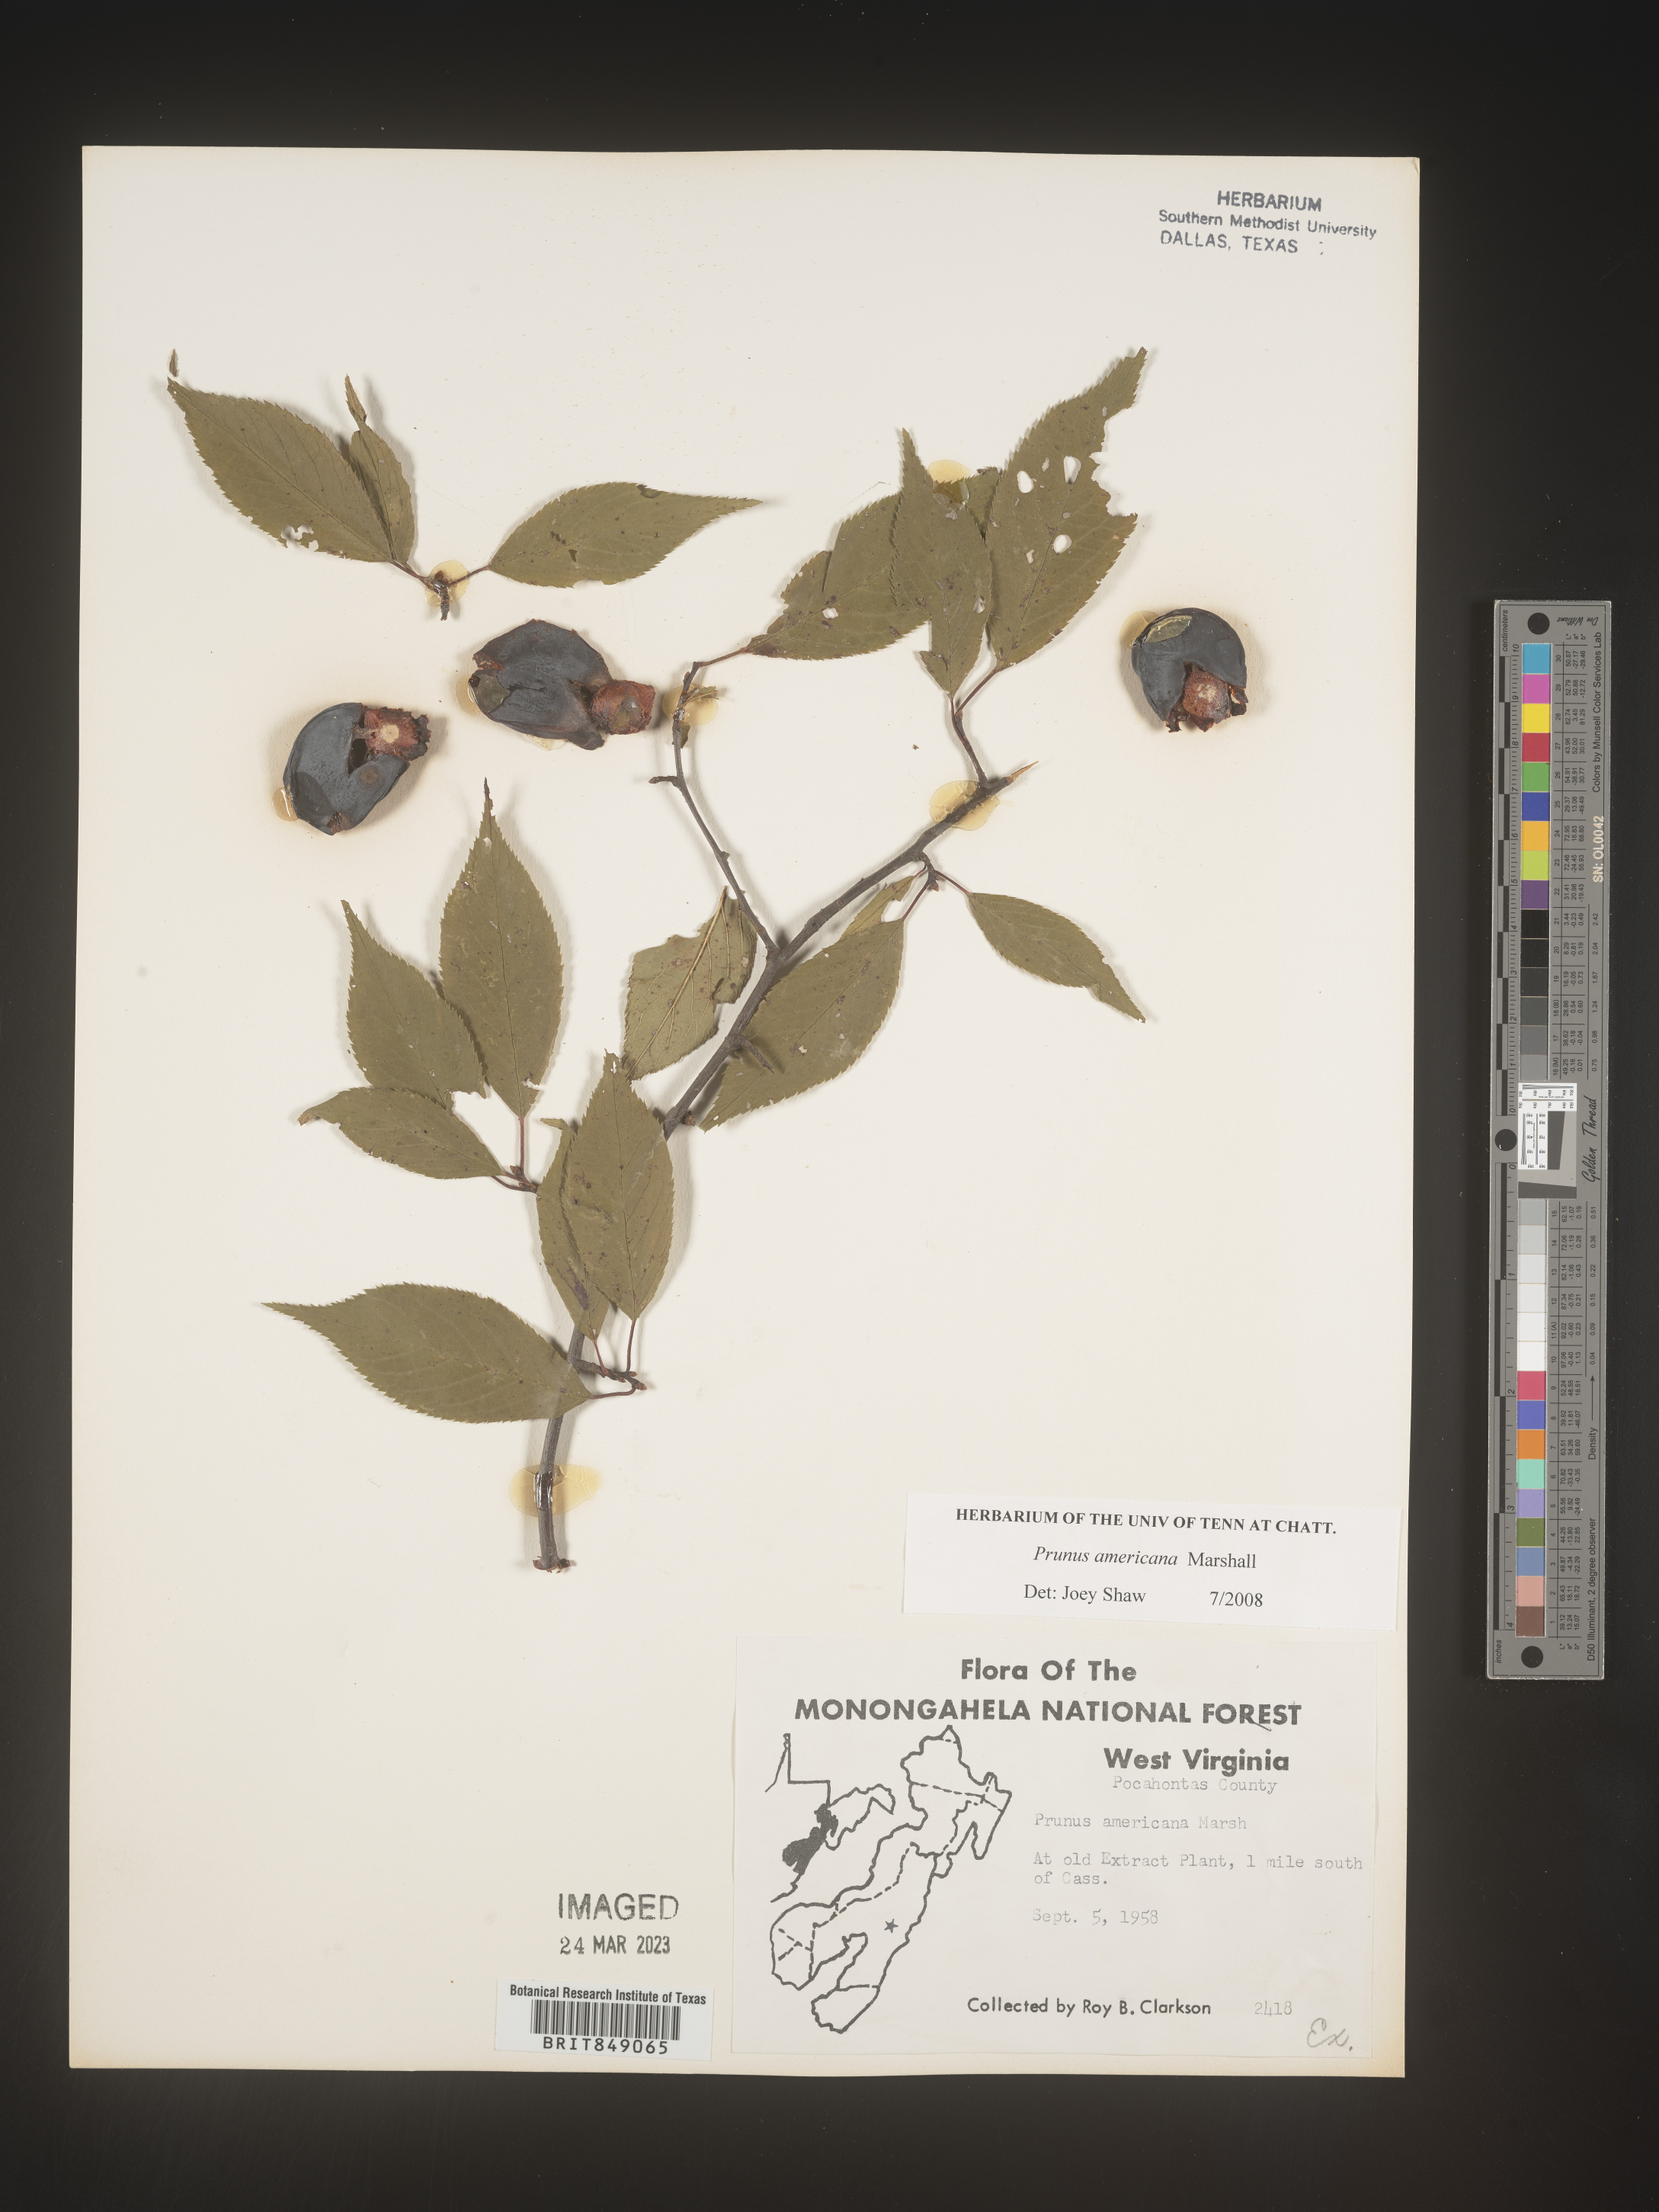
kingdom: Plantae
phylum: Tracheophyta
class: Magnoliopsida
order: Rosales
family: Rosaceae
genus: Prunus
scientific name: Prunus americana
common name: American plum
